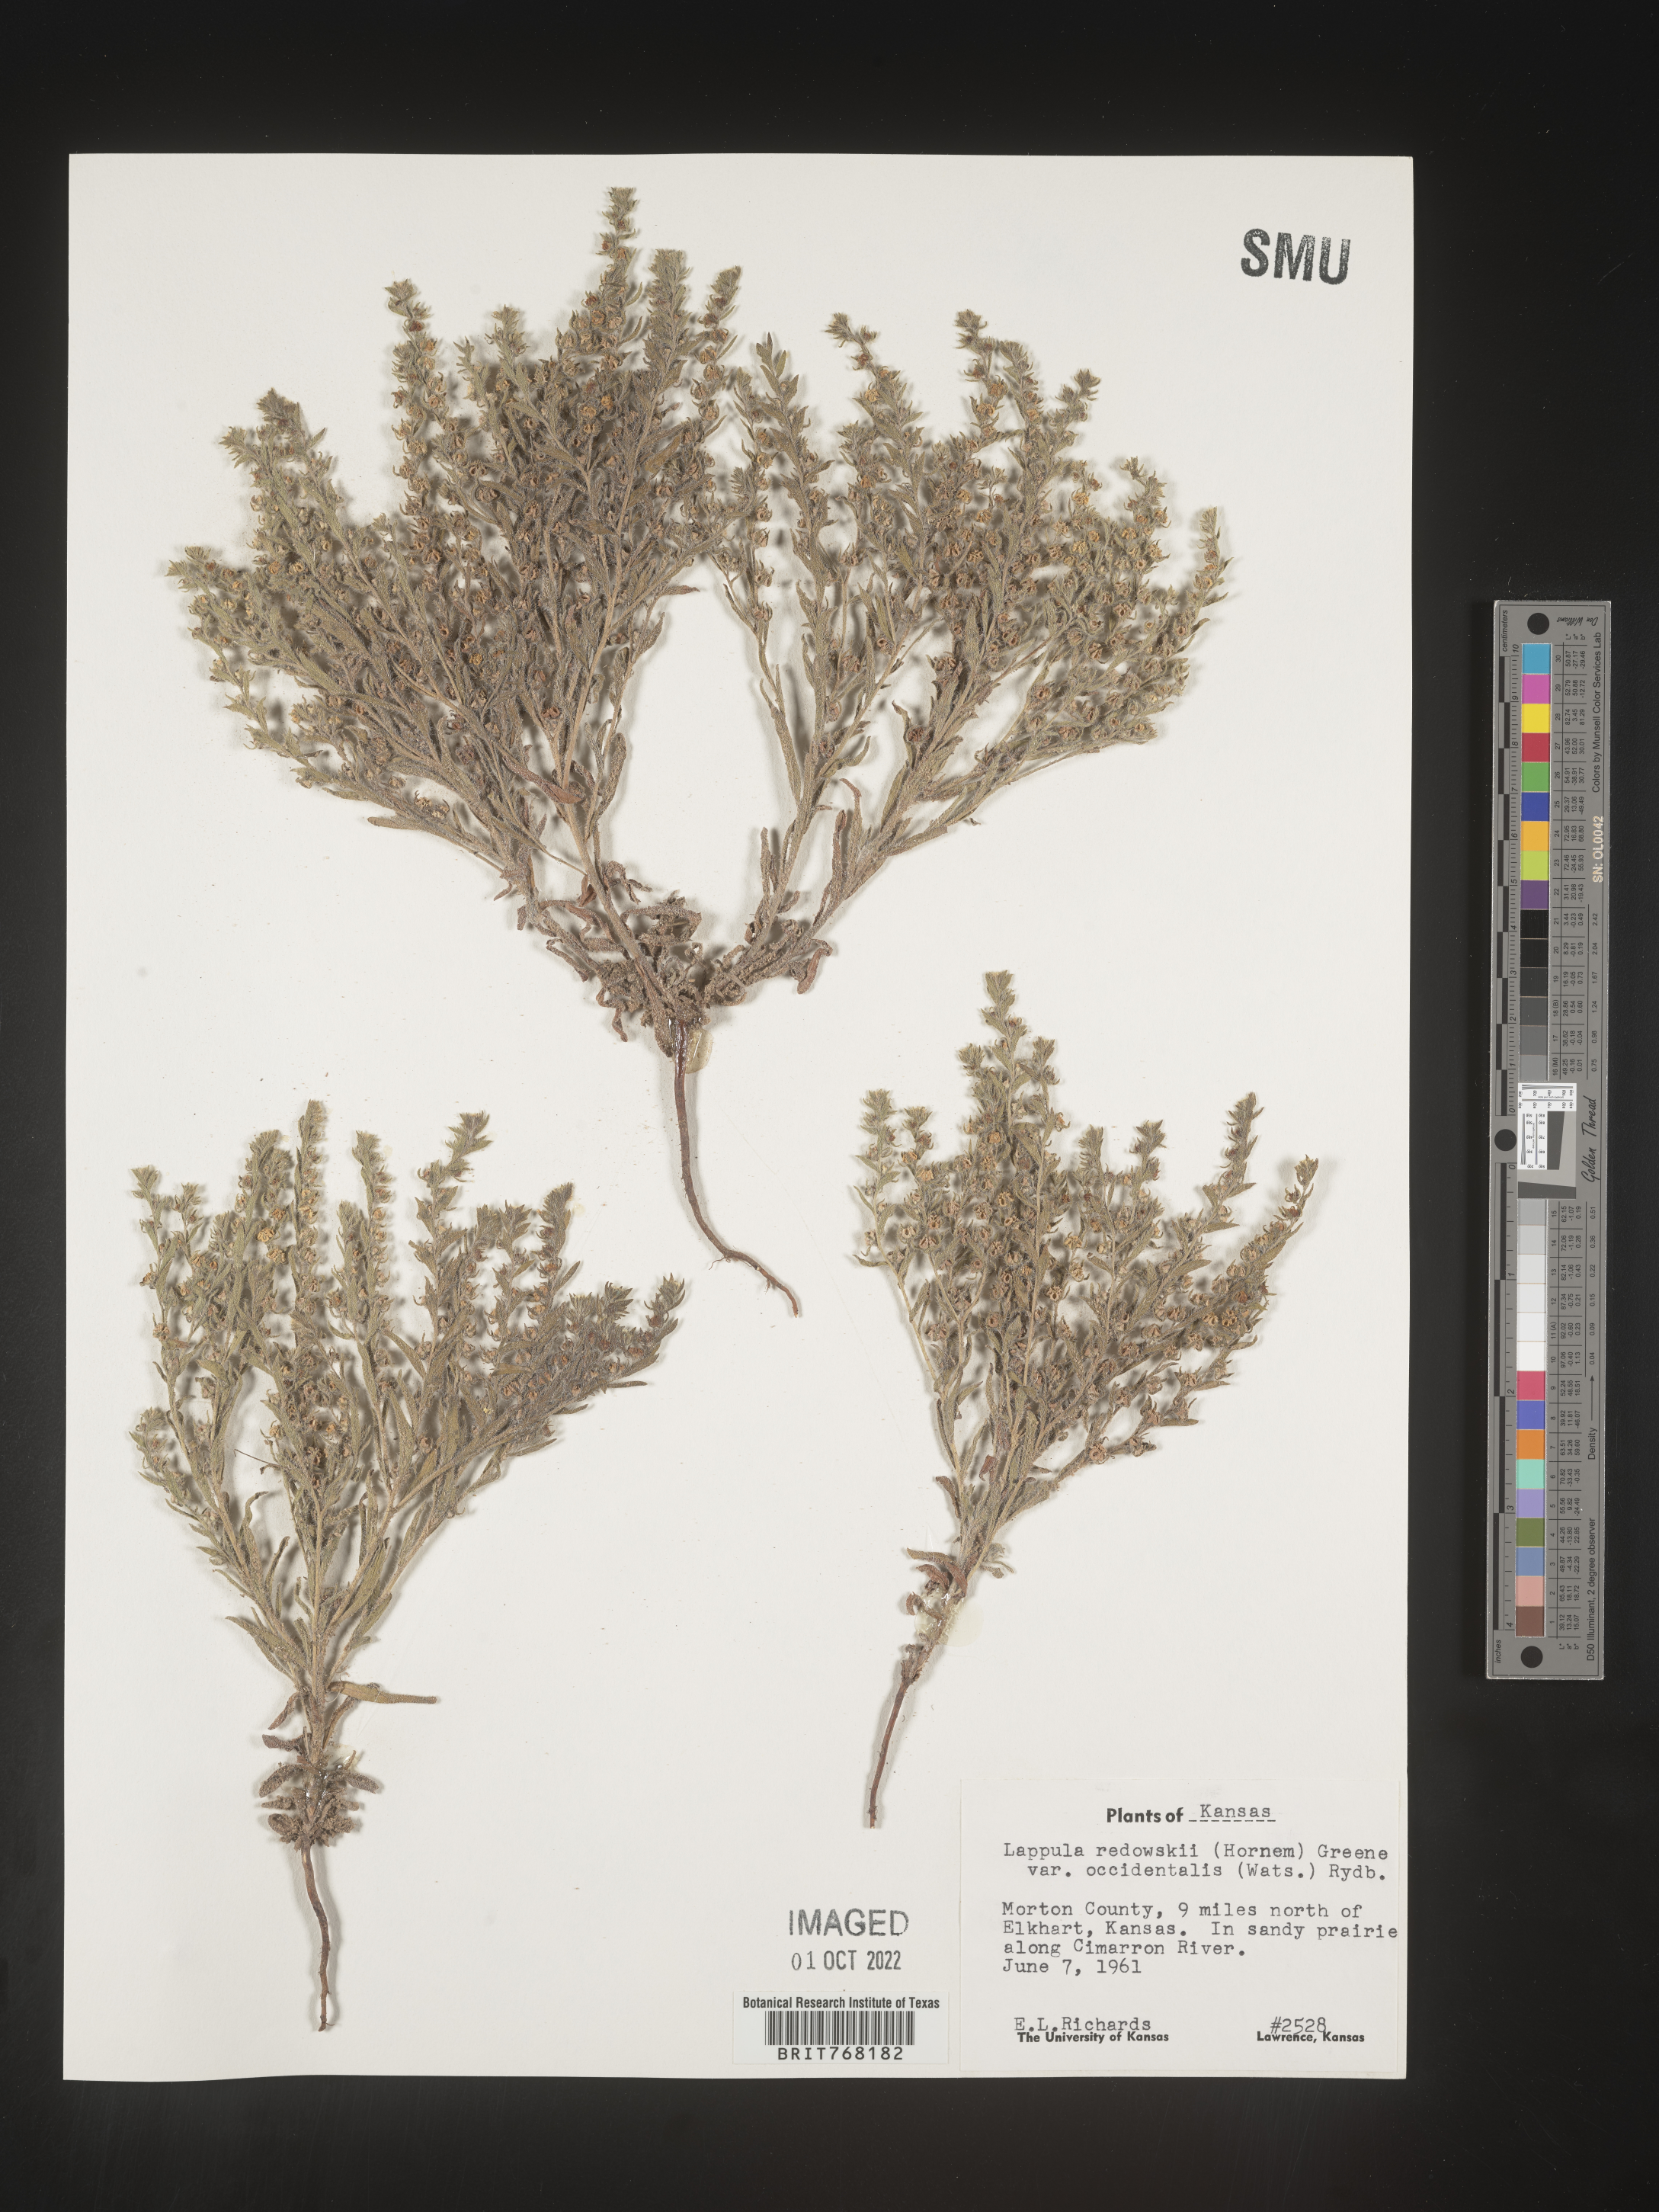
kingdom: Plantae
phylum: Tracheophyta
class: Magnoliopsida
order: Boraginales
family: Boraginaceae
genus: Lappula
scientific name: Lappula redowskii
